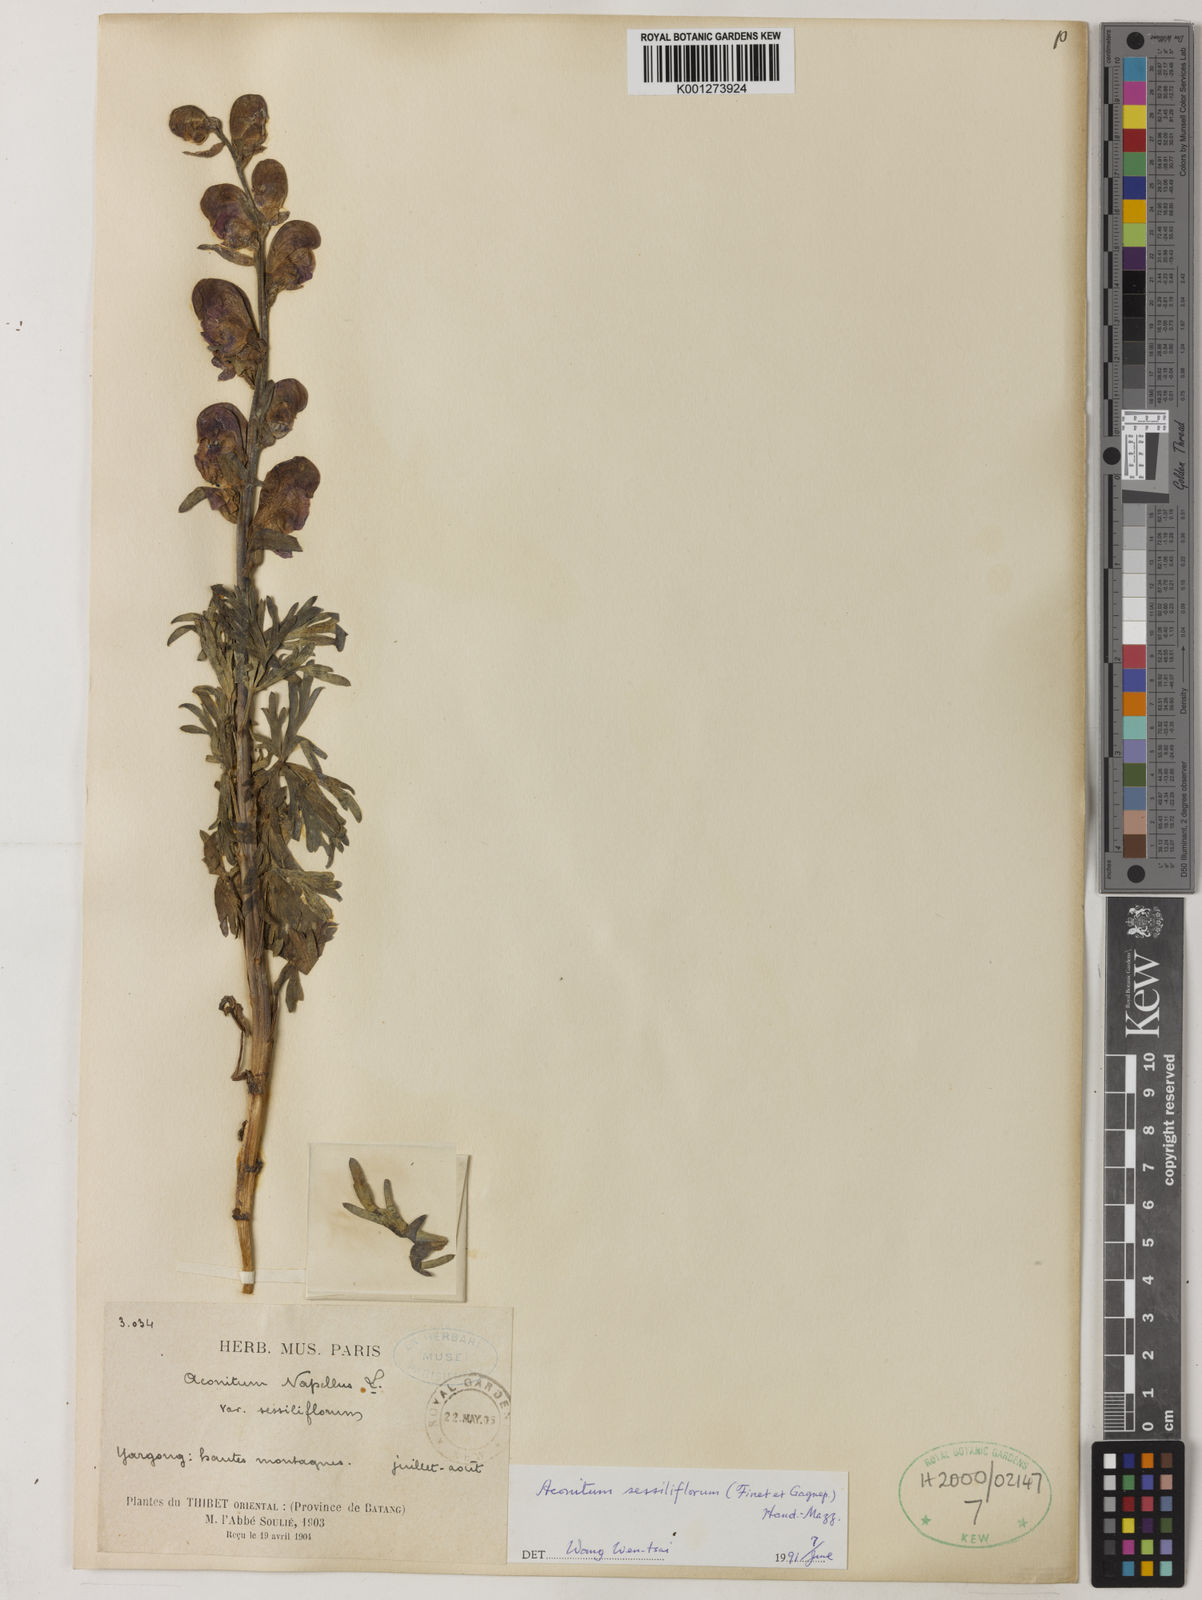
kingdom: Plantae
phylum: Tracheophyta
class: Magnoliopsida
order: Ranunculales
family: Ranunculaceae
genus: Aconitum
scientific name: Aconitum falciforme
